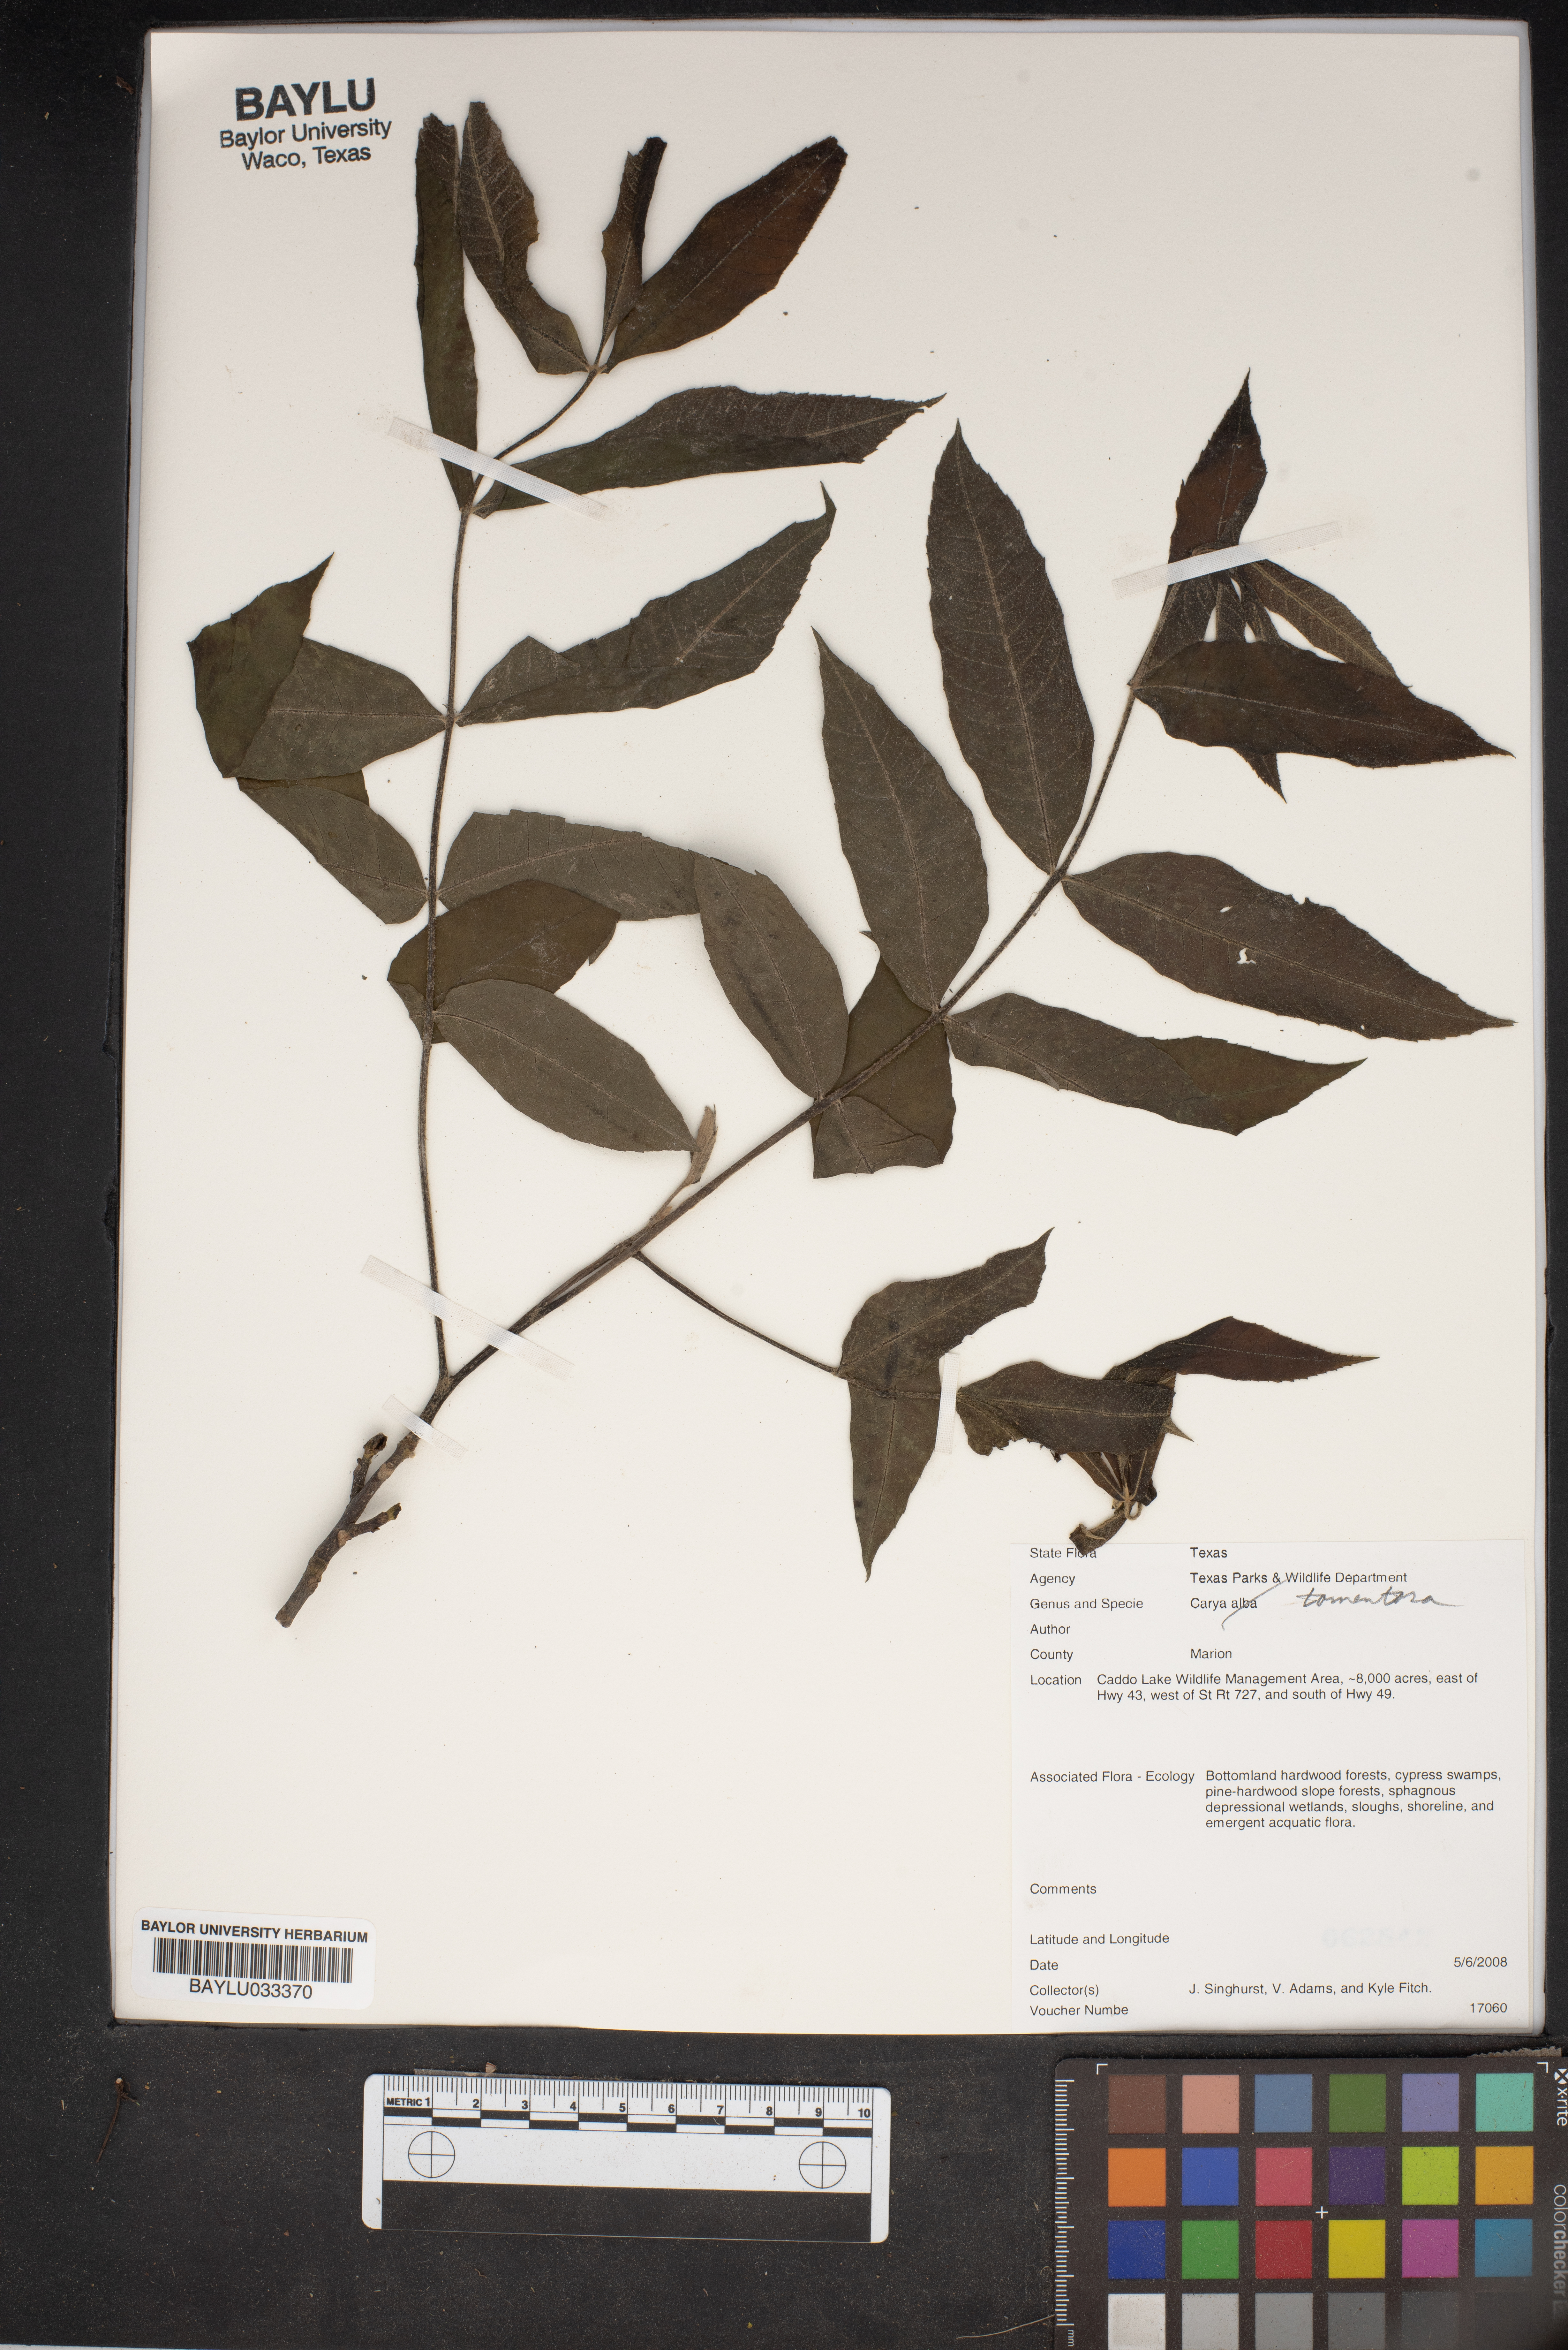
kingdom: Plantae
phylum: Tracheophyta
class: Magnoliopsida
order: Fagales
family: Juglandaceae
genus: Carya
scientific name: Carya alba
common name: Mockernut hickory
